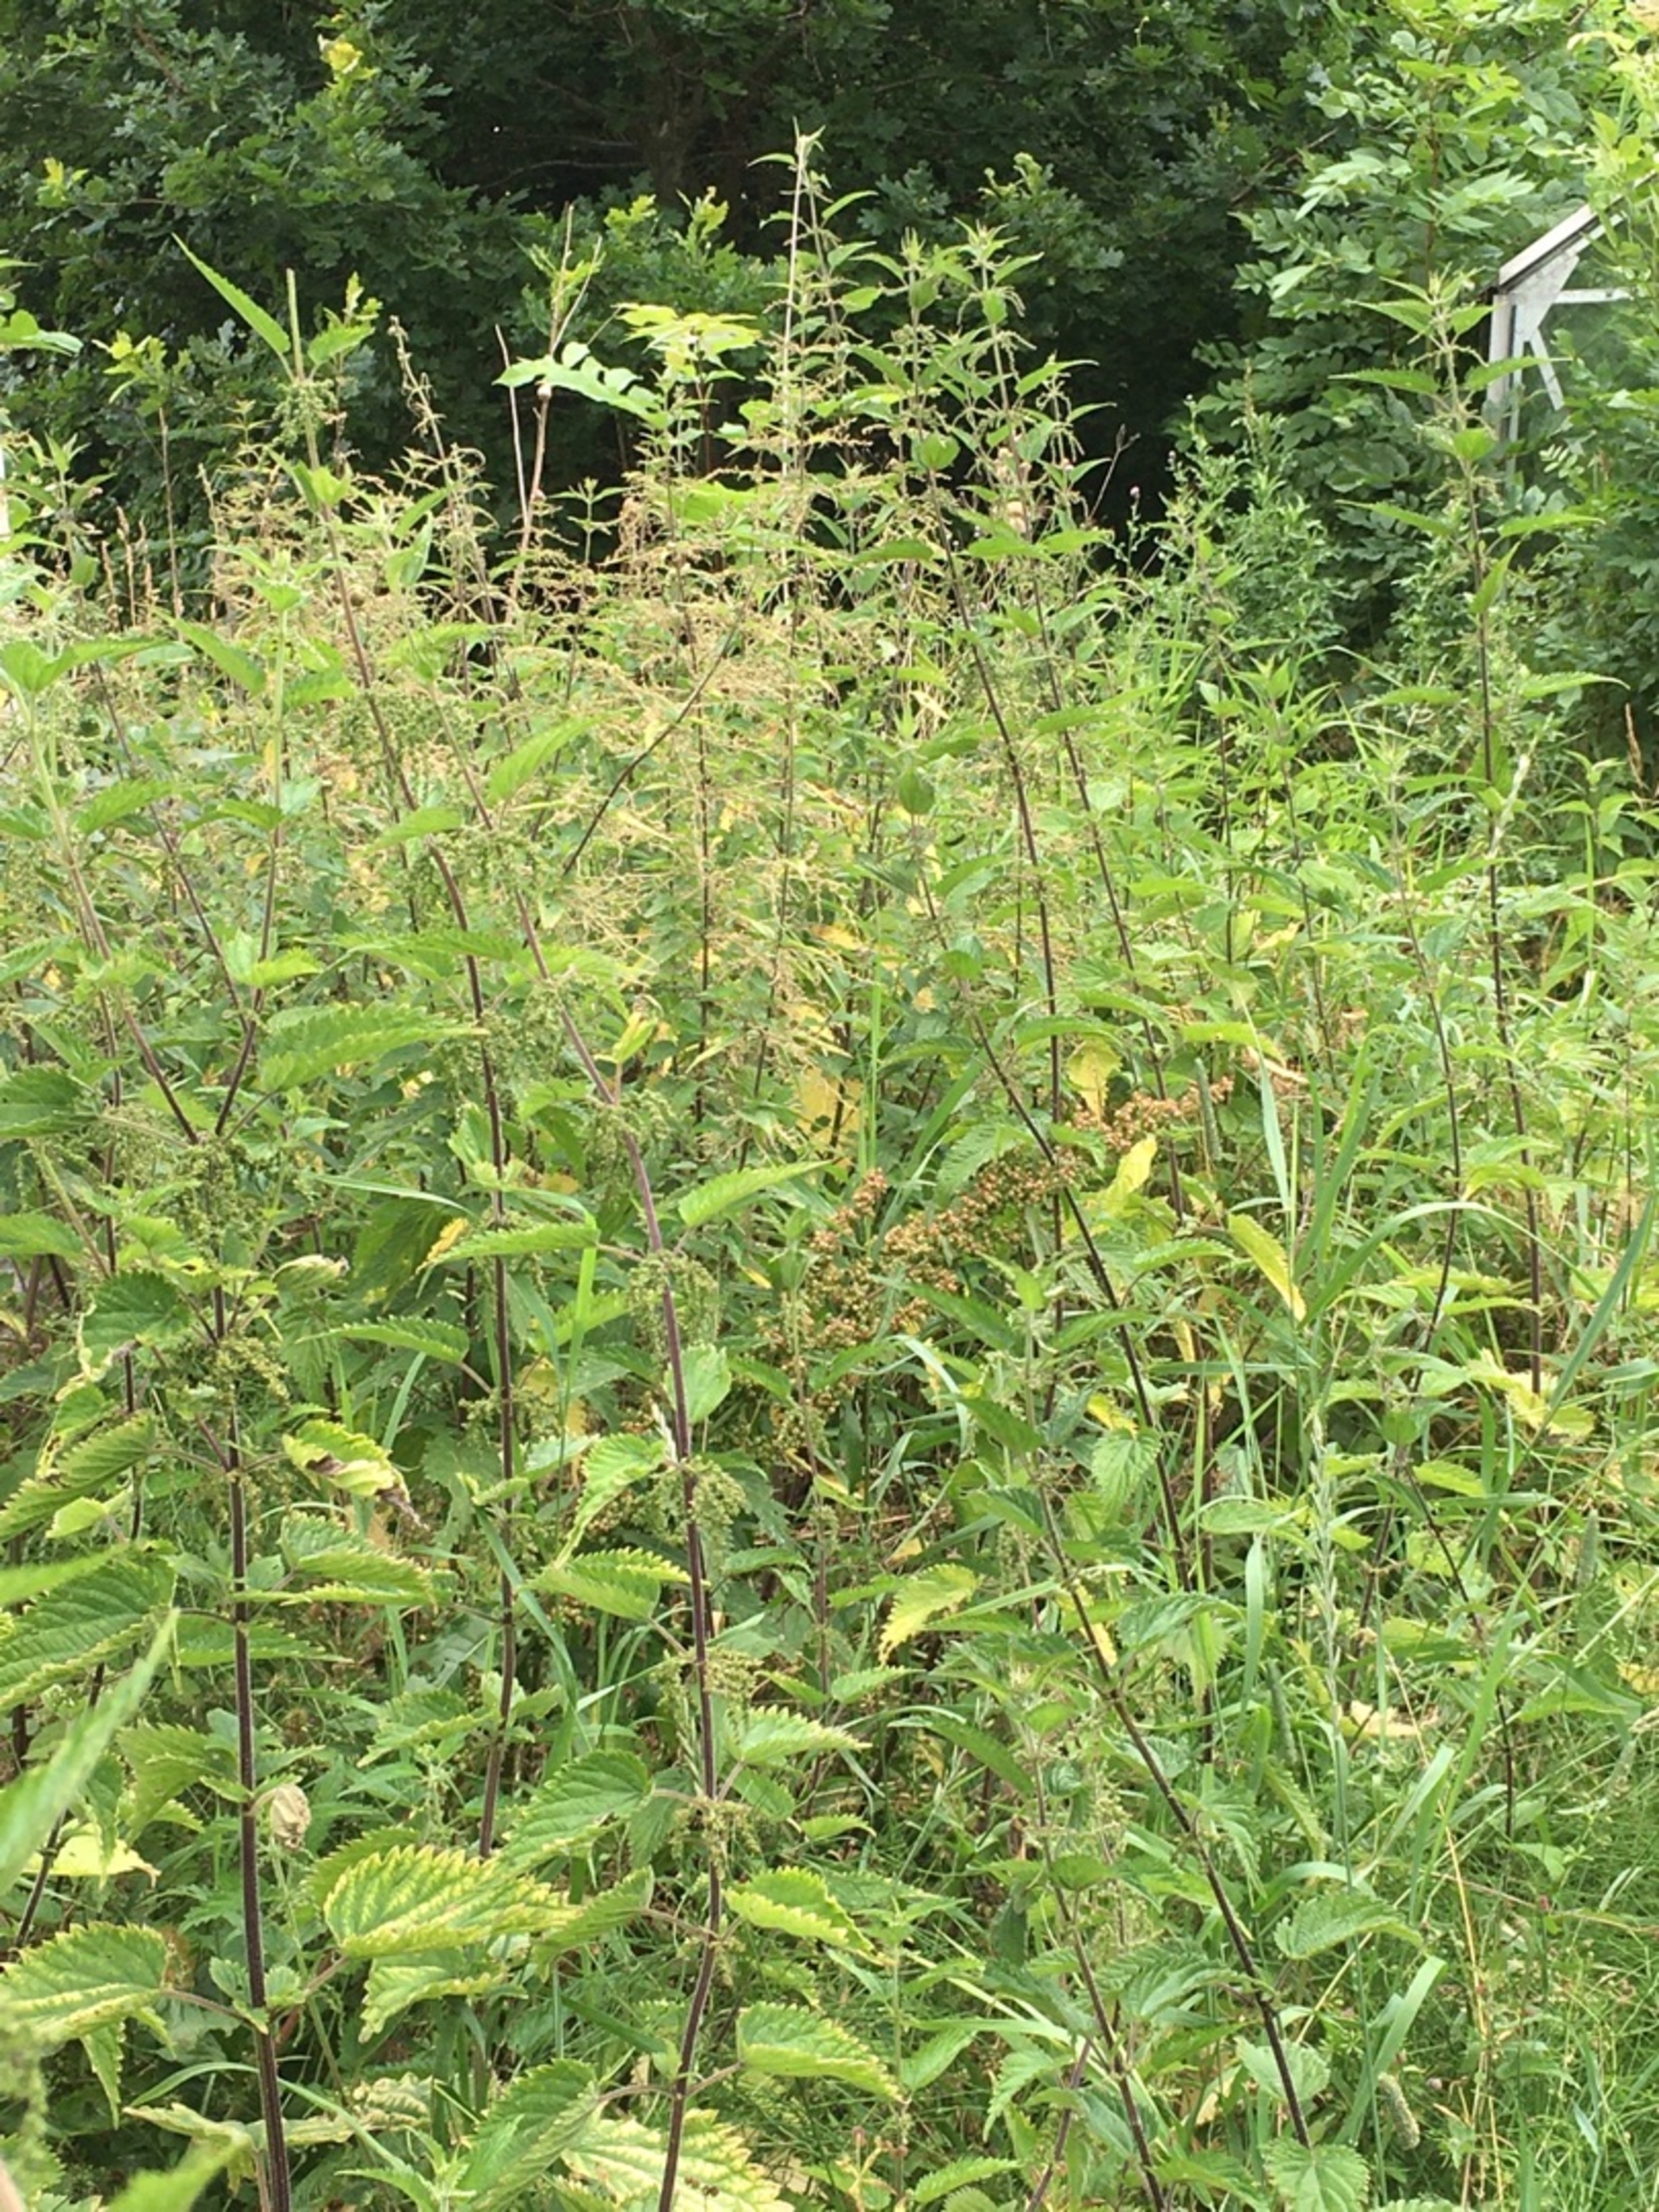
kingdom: Plantae
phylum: Tracheophyta
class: Magnoliopsida
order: Rosales
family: Urticaceae
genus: Urtica
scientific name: Urtica dioica
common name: Stor nælde
